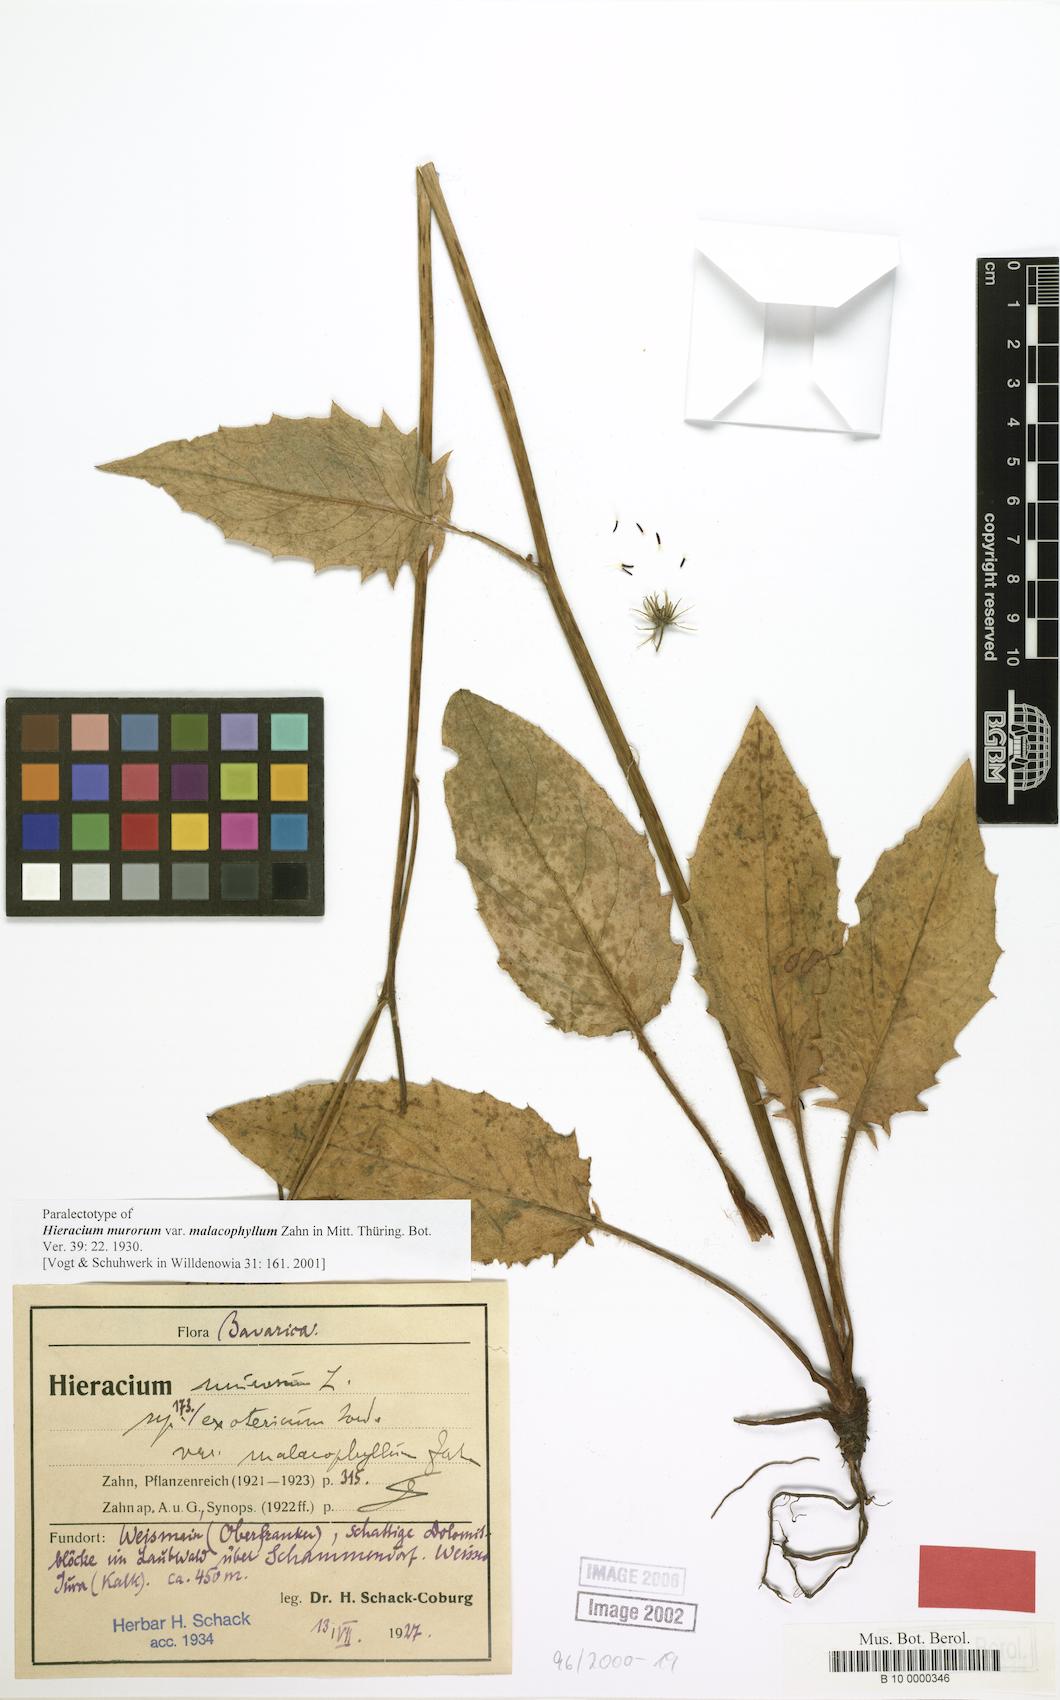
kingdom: Plantae
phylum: Tracheophyta
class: Magnoliopsida
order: Asterales
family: Asteraceae
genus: Hieracium
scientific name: Hieracium murorum
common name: Wall hawkweed
